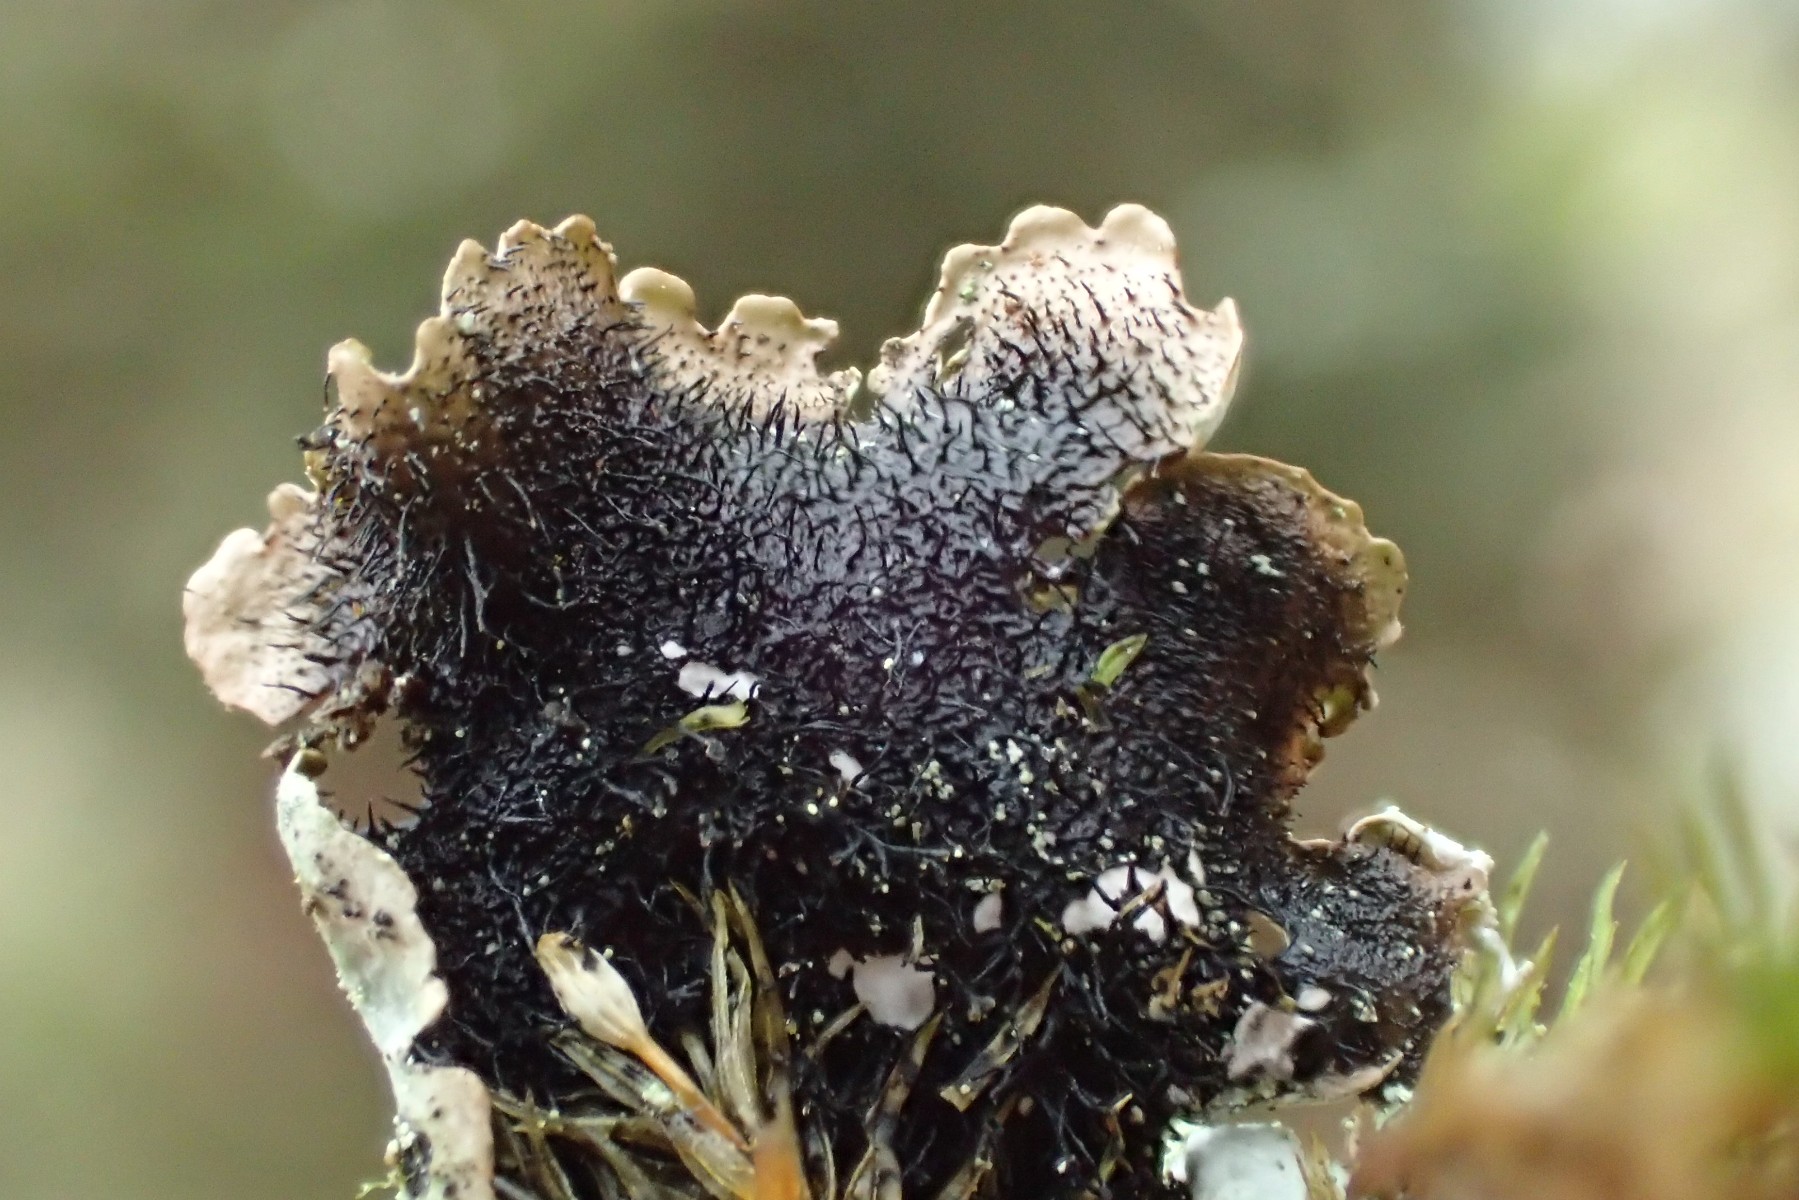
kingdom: Fungi
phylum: Ascomycota
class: Lecanoromycetes
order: Lecanorales
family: Parmeliaceae
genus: Hypotrachyna
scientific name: Hypotrachyna afrorevoluta
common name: kyst-skållav
